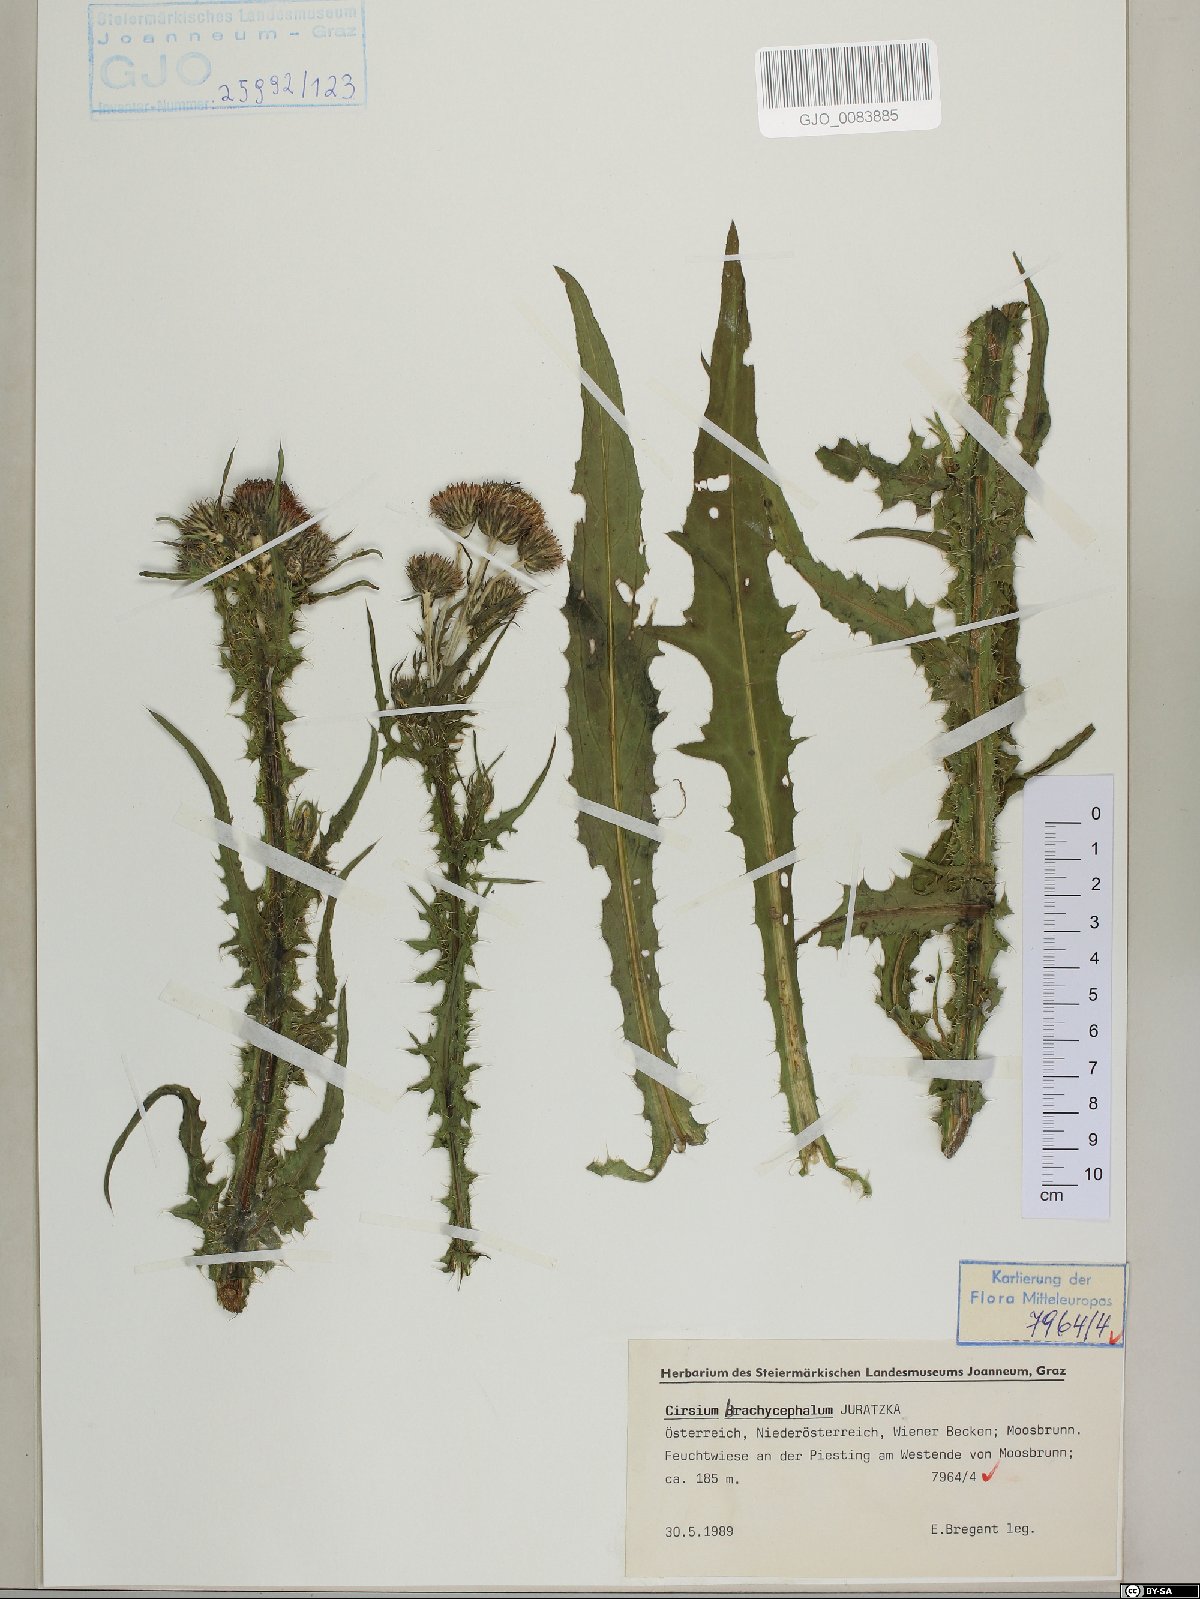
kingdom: Plantae
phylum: Tracheophyta
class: Magnoliopsida
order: Asterales
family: Asteraceae
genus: Cirsium
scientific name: Cirsium brachycephalum
